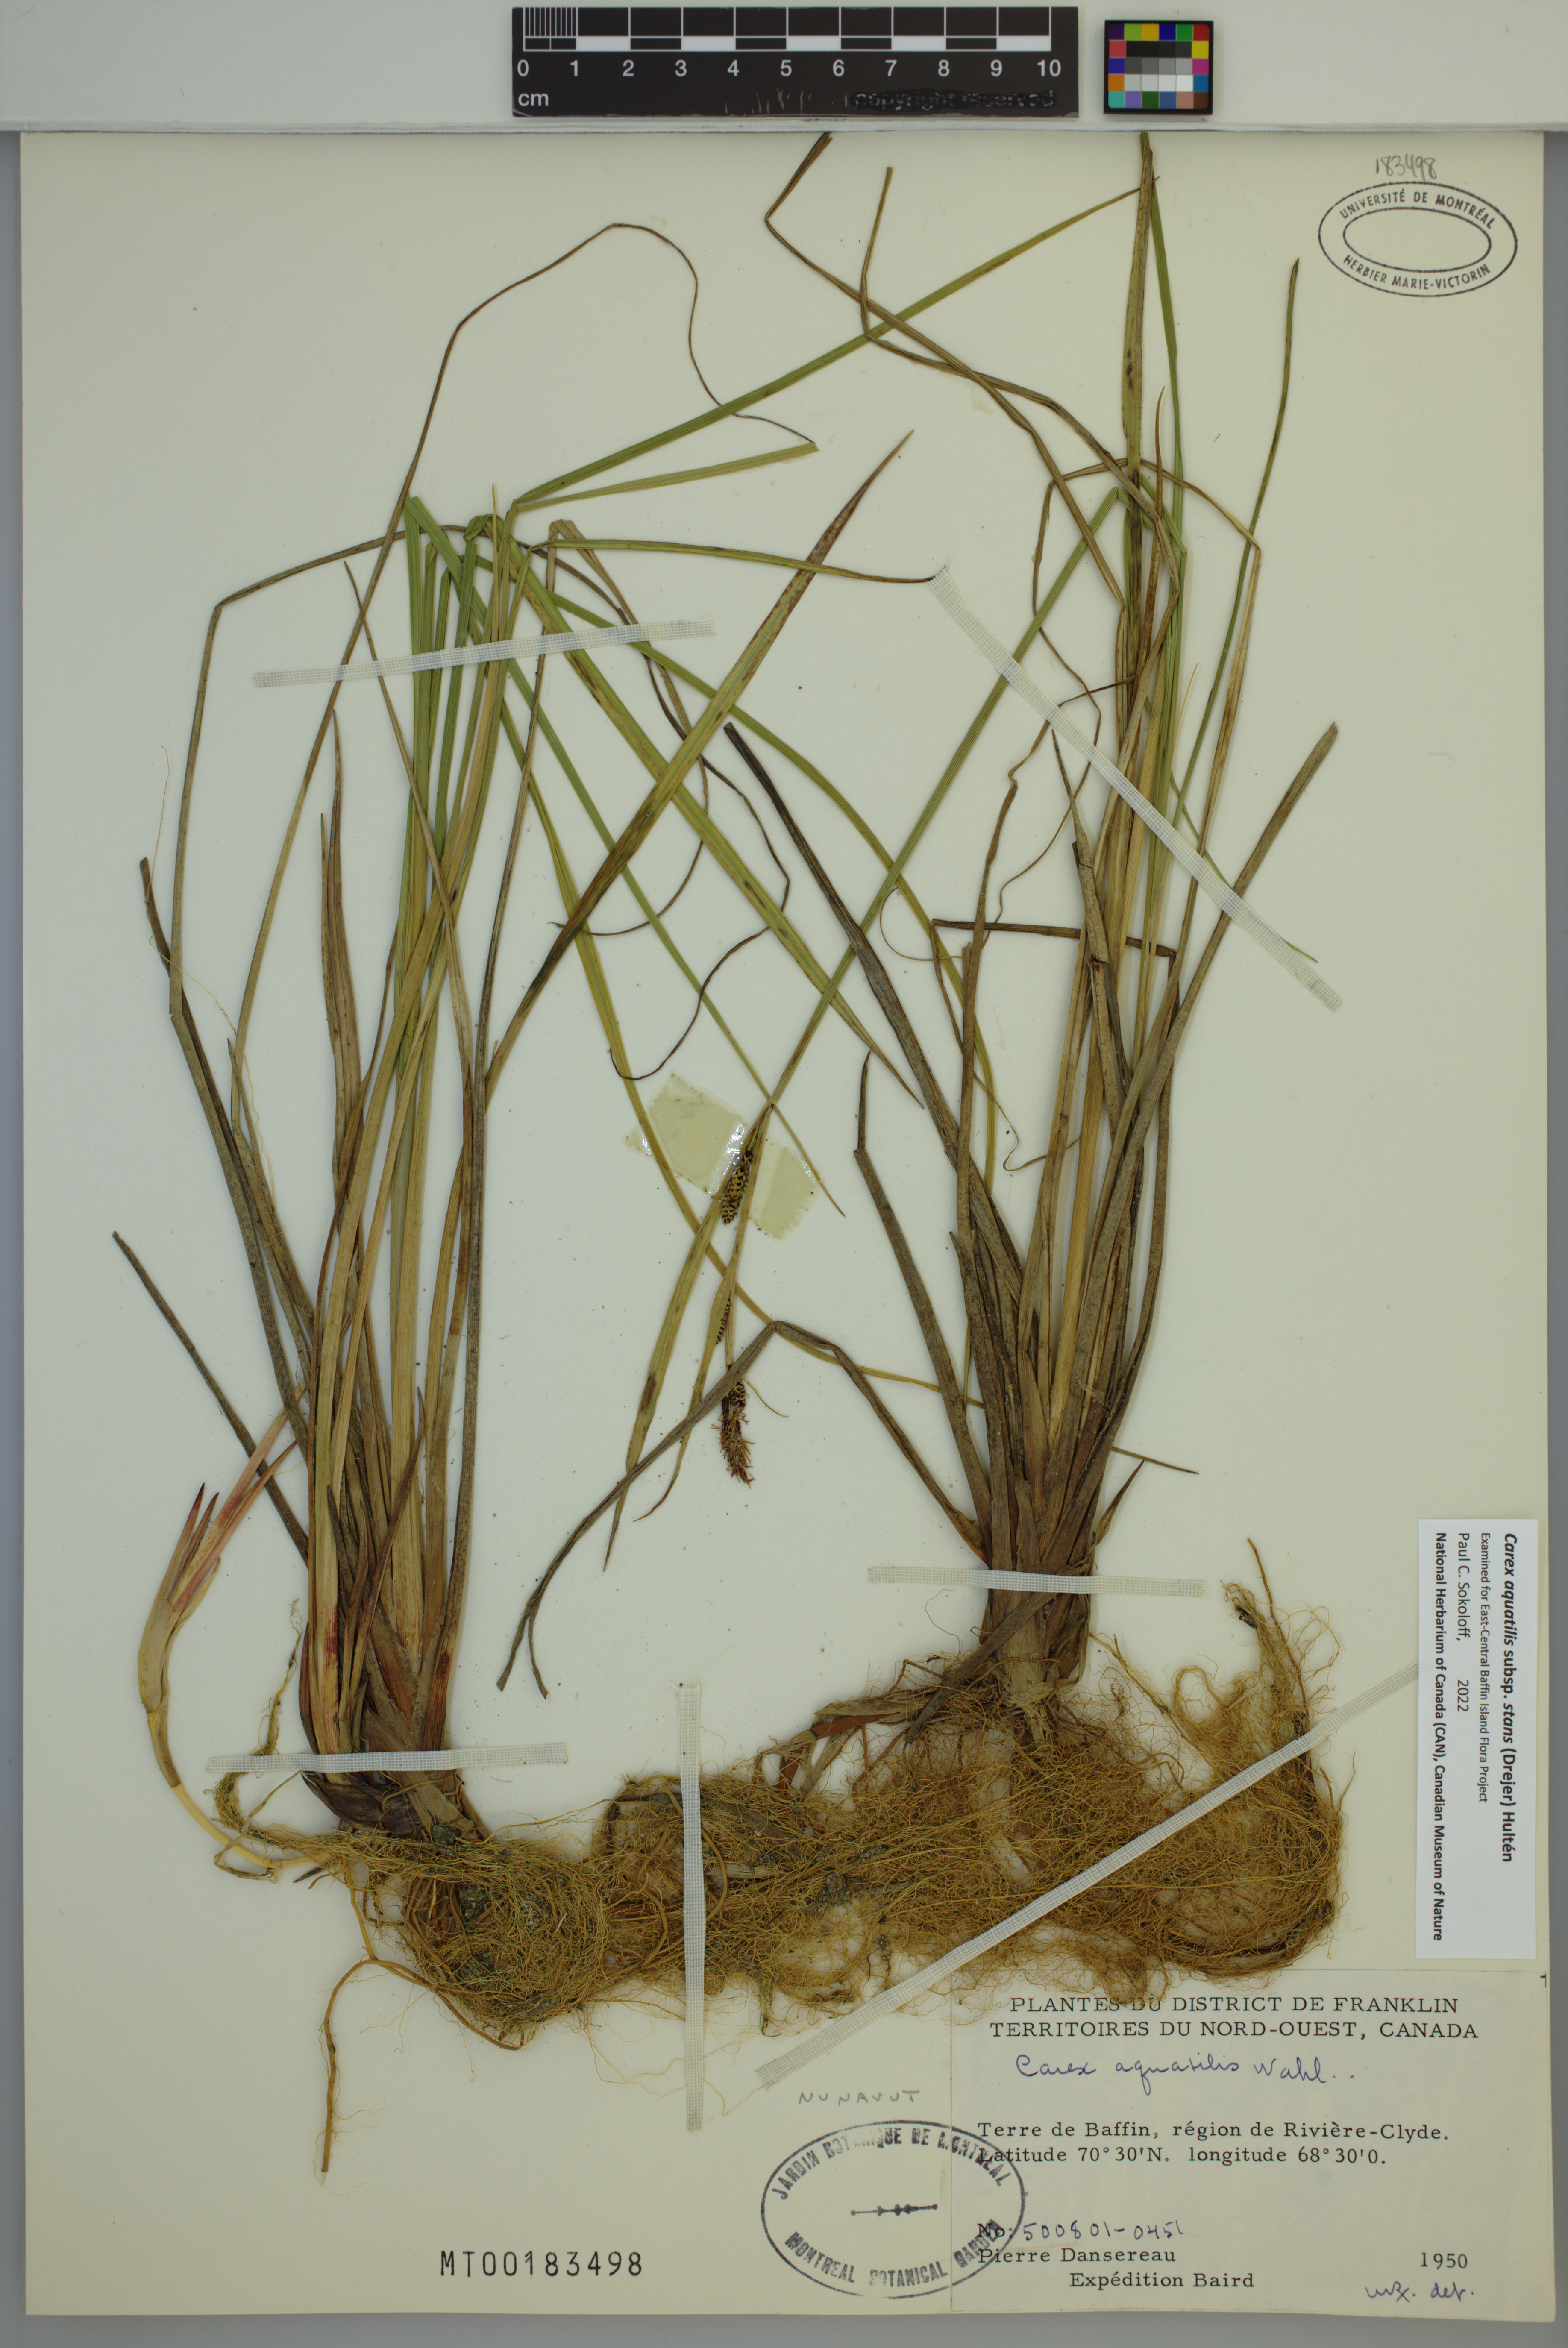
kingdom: Plantae
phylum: Tracheophyta
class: Liliopsida
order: Poales
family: Cyperaceae
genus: Carex
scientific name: Carex aquatilis
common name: Water sedge
